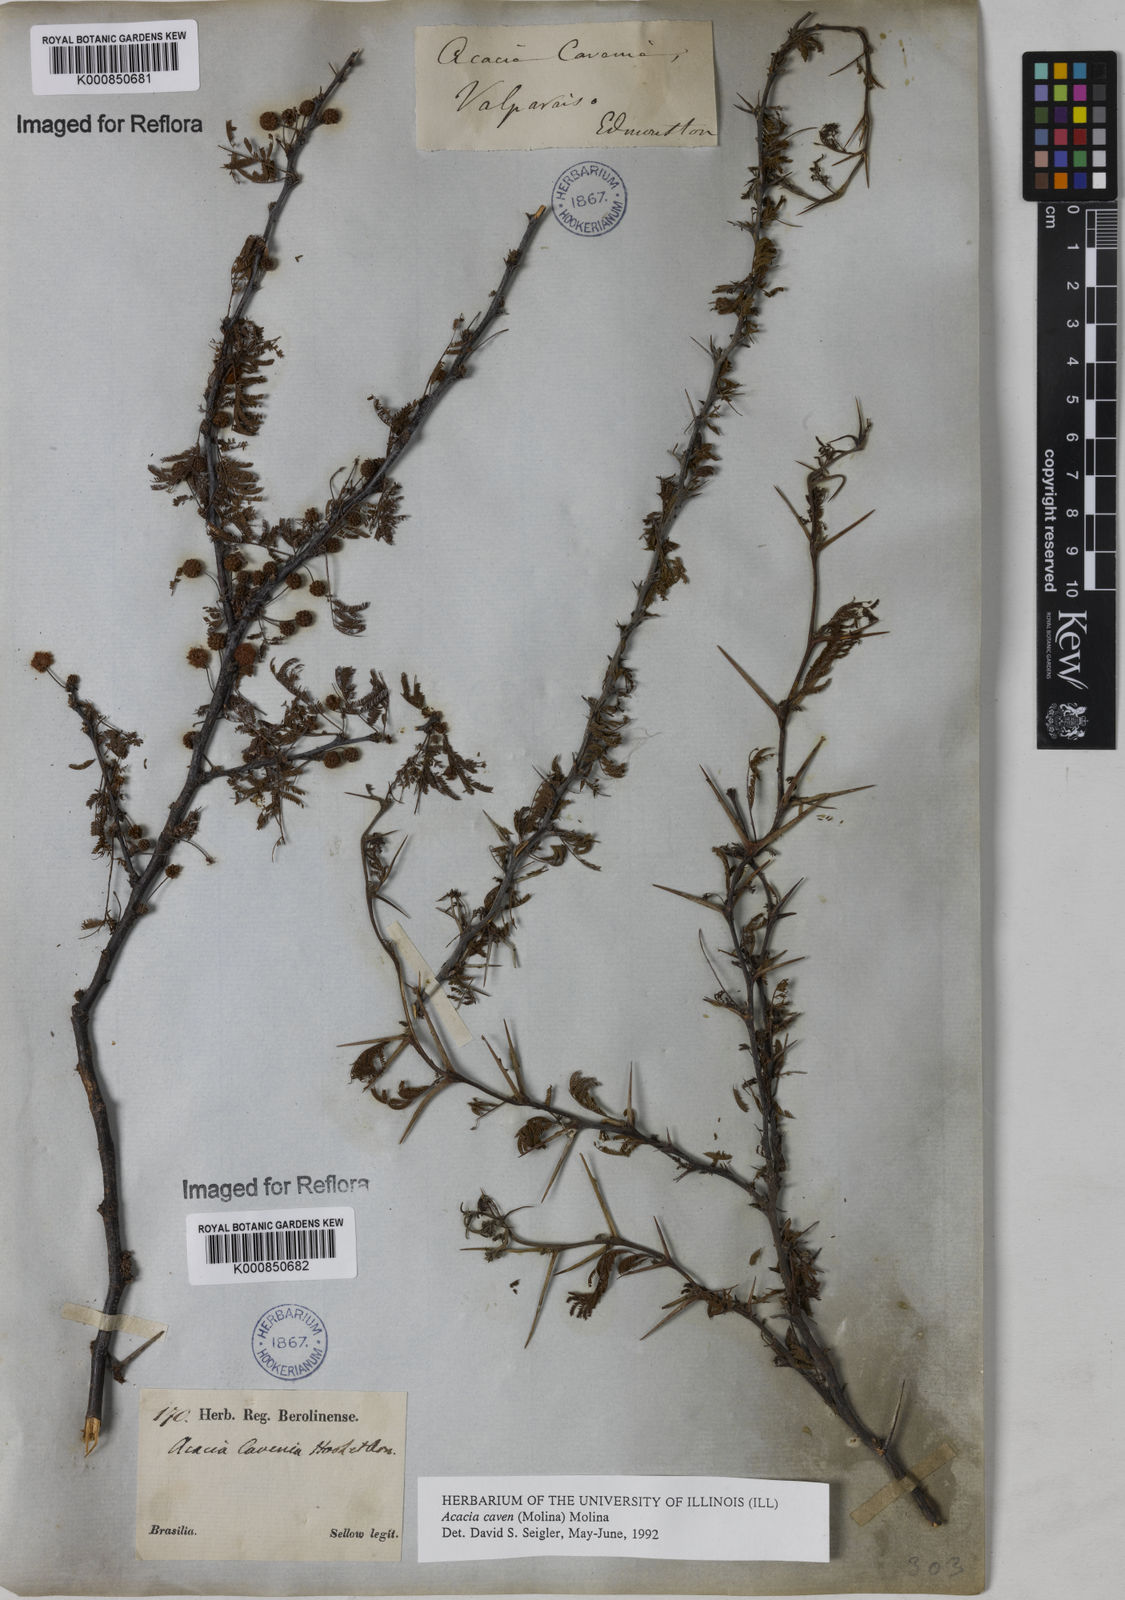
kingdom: Plantae
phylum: Tracheophyta
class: Magnoliopsida
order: Fabales
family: Fabaceae
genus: Vachellia
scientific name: Vachellia caven
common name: Roman cassie
